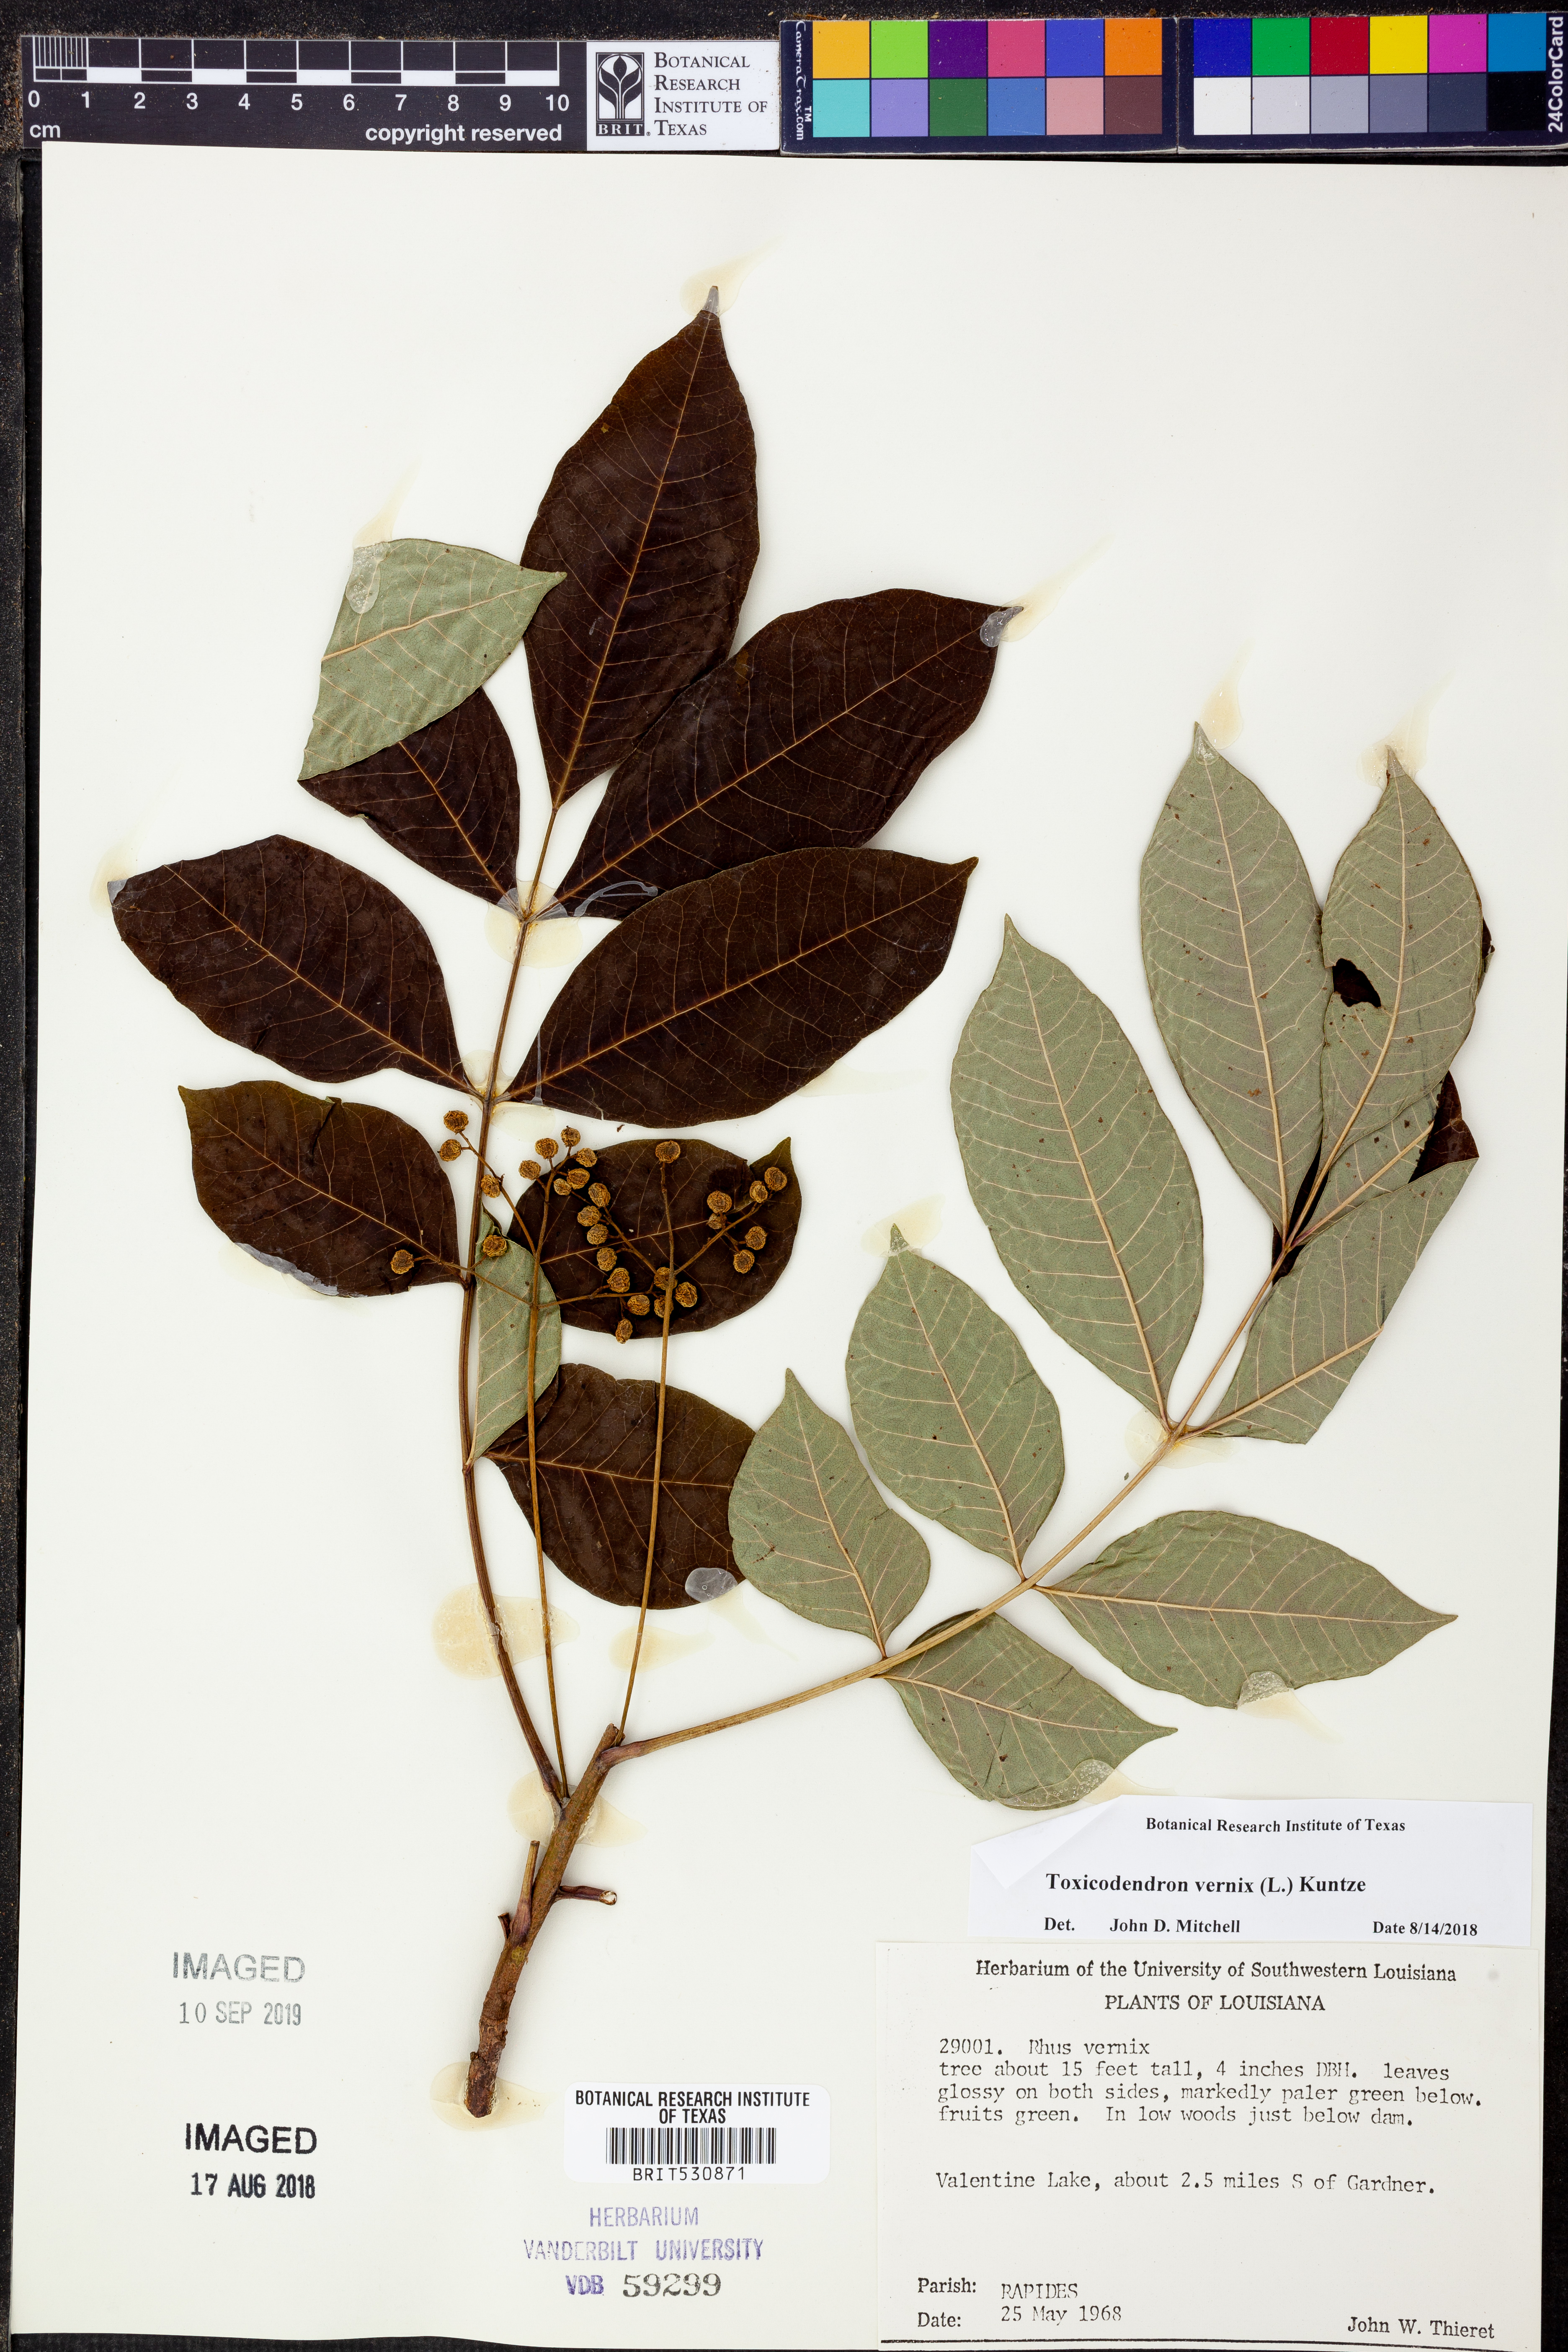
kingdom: Plantae
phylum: Tracheophyta
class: Magnoliopsida
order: Sapindales
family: Anacardiaceae
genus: Toxicodendron
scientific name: Toxicodendron vernix
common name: Poison sumac
